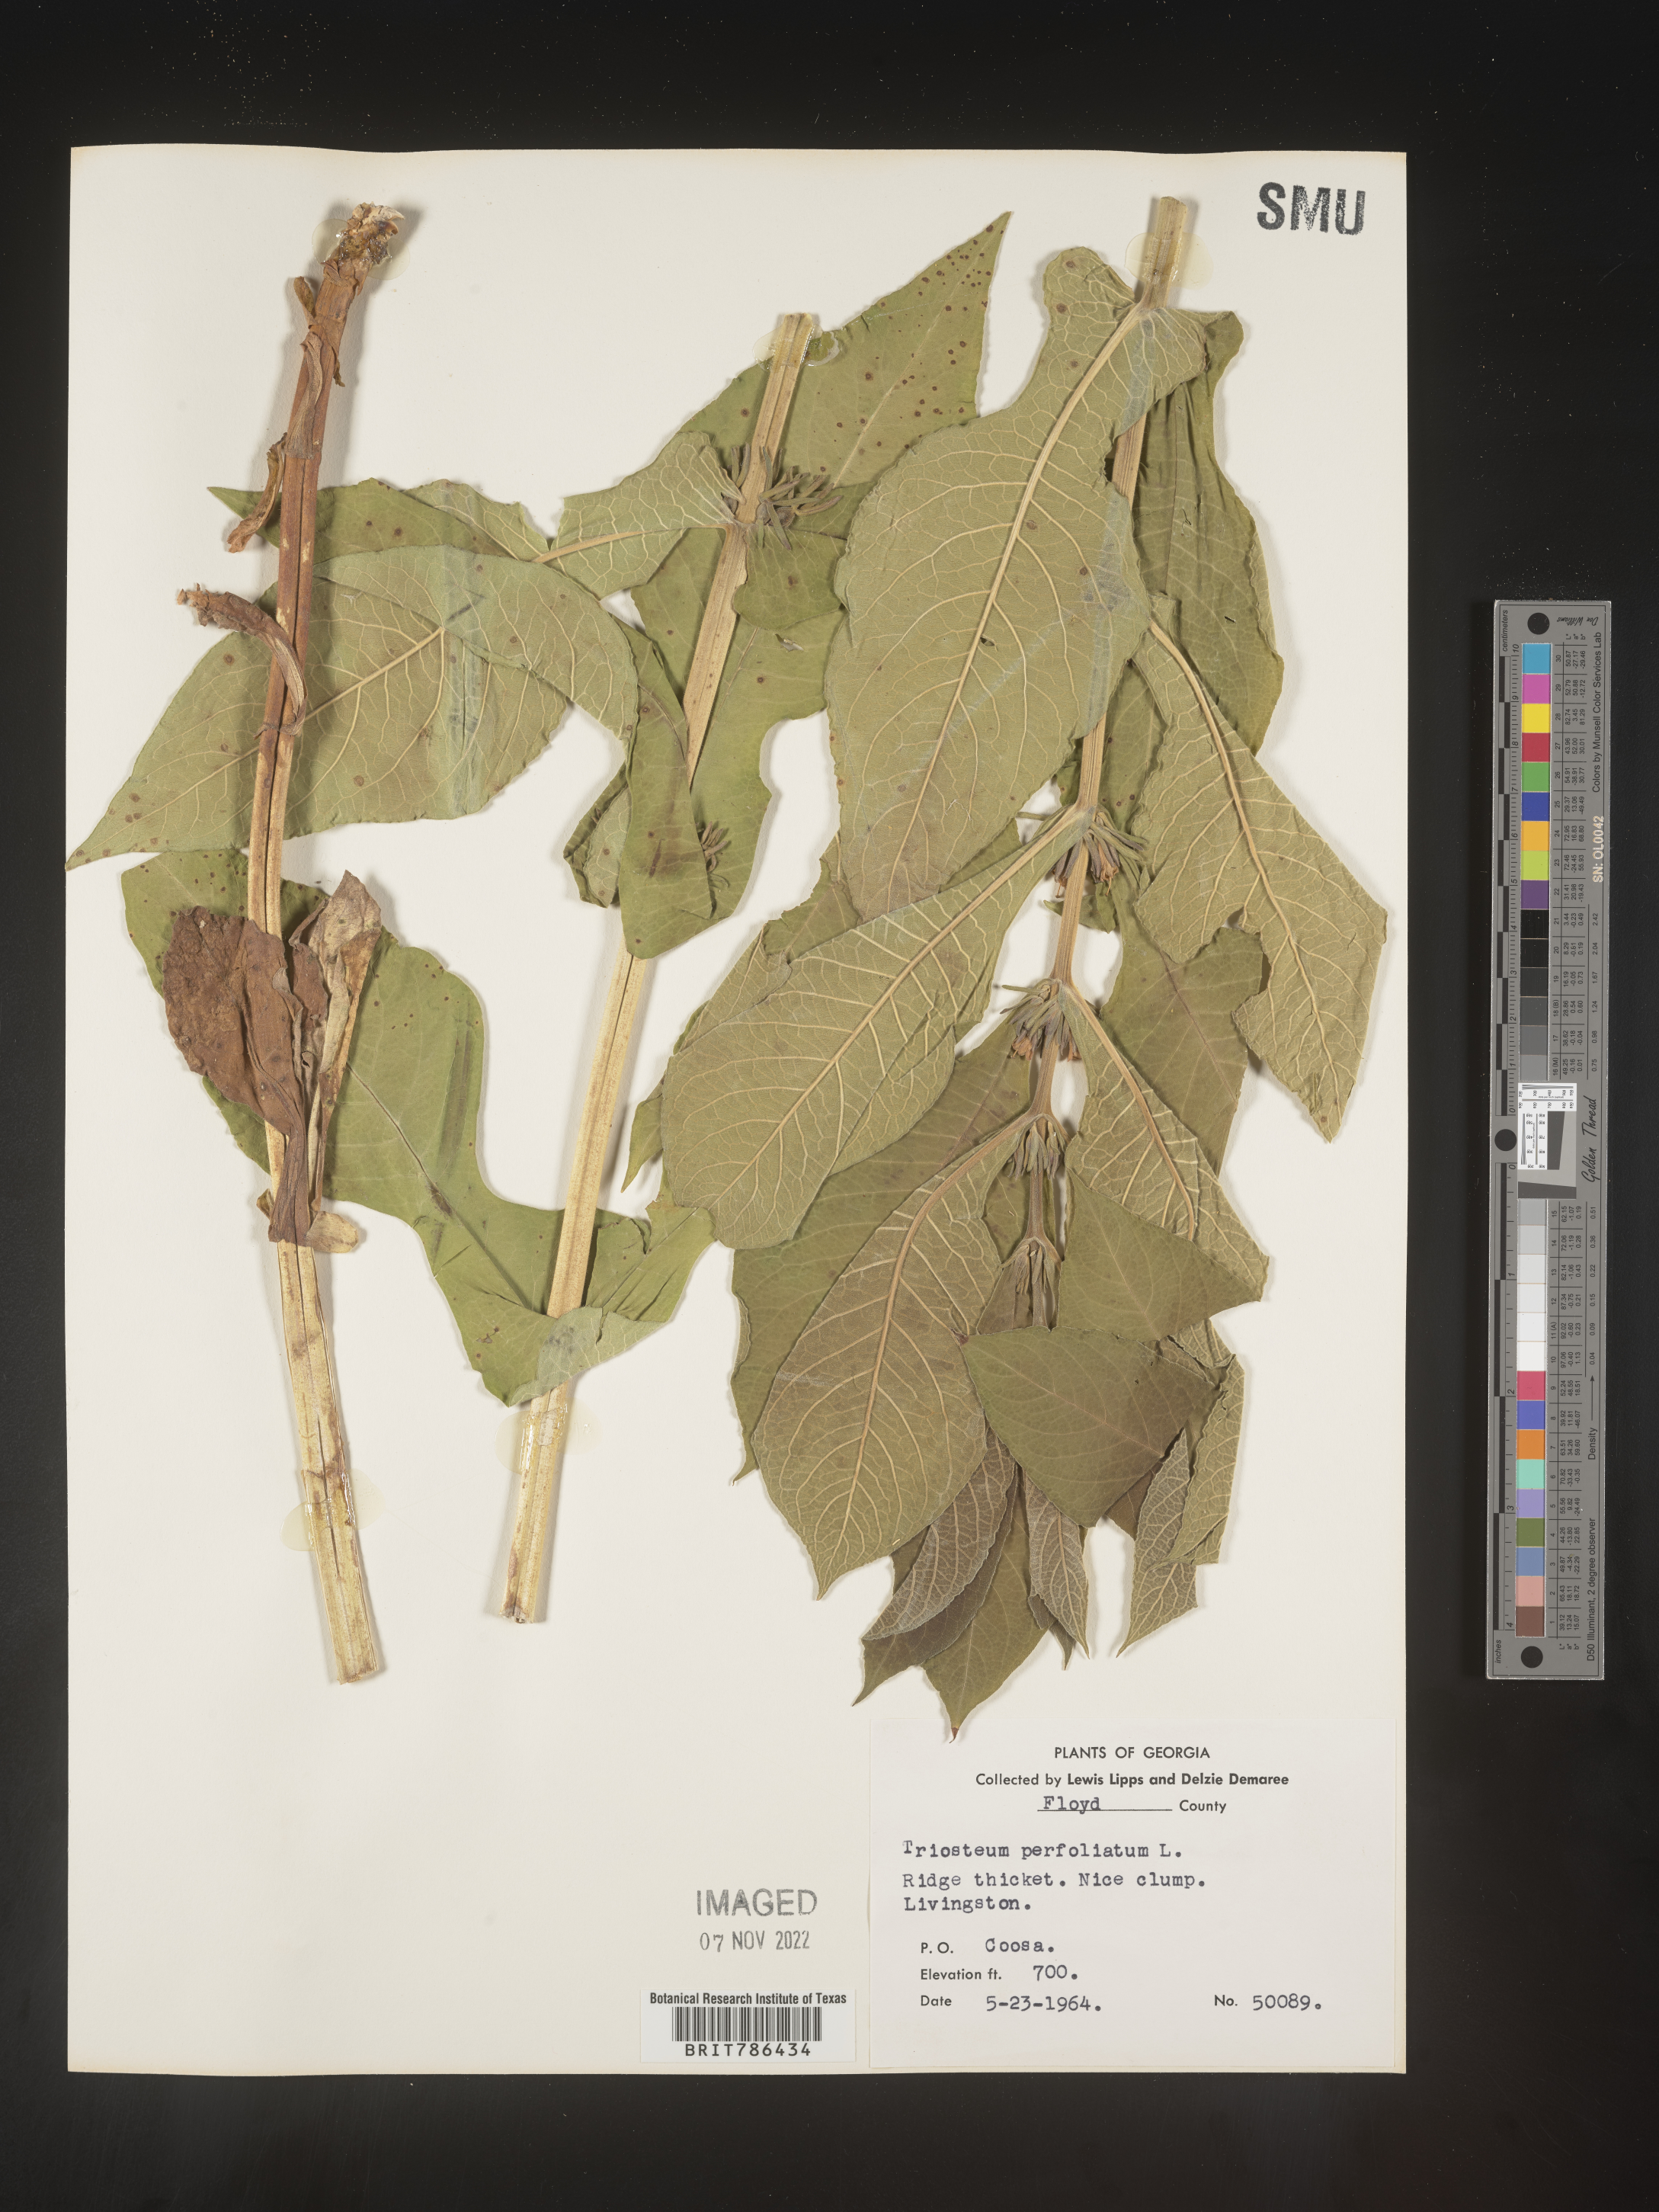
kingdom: Plantae
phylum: Tracheophyta
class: Magnoliopsida
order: Dipsacales
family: Caprifoliaceae
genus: Triosteum
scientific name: Triosteum perfoliatum
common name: Common horse-gentian
